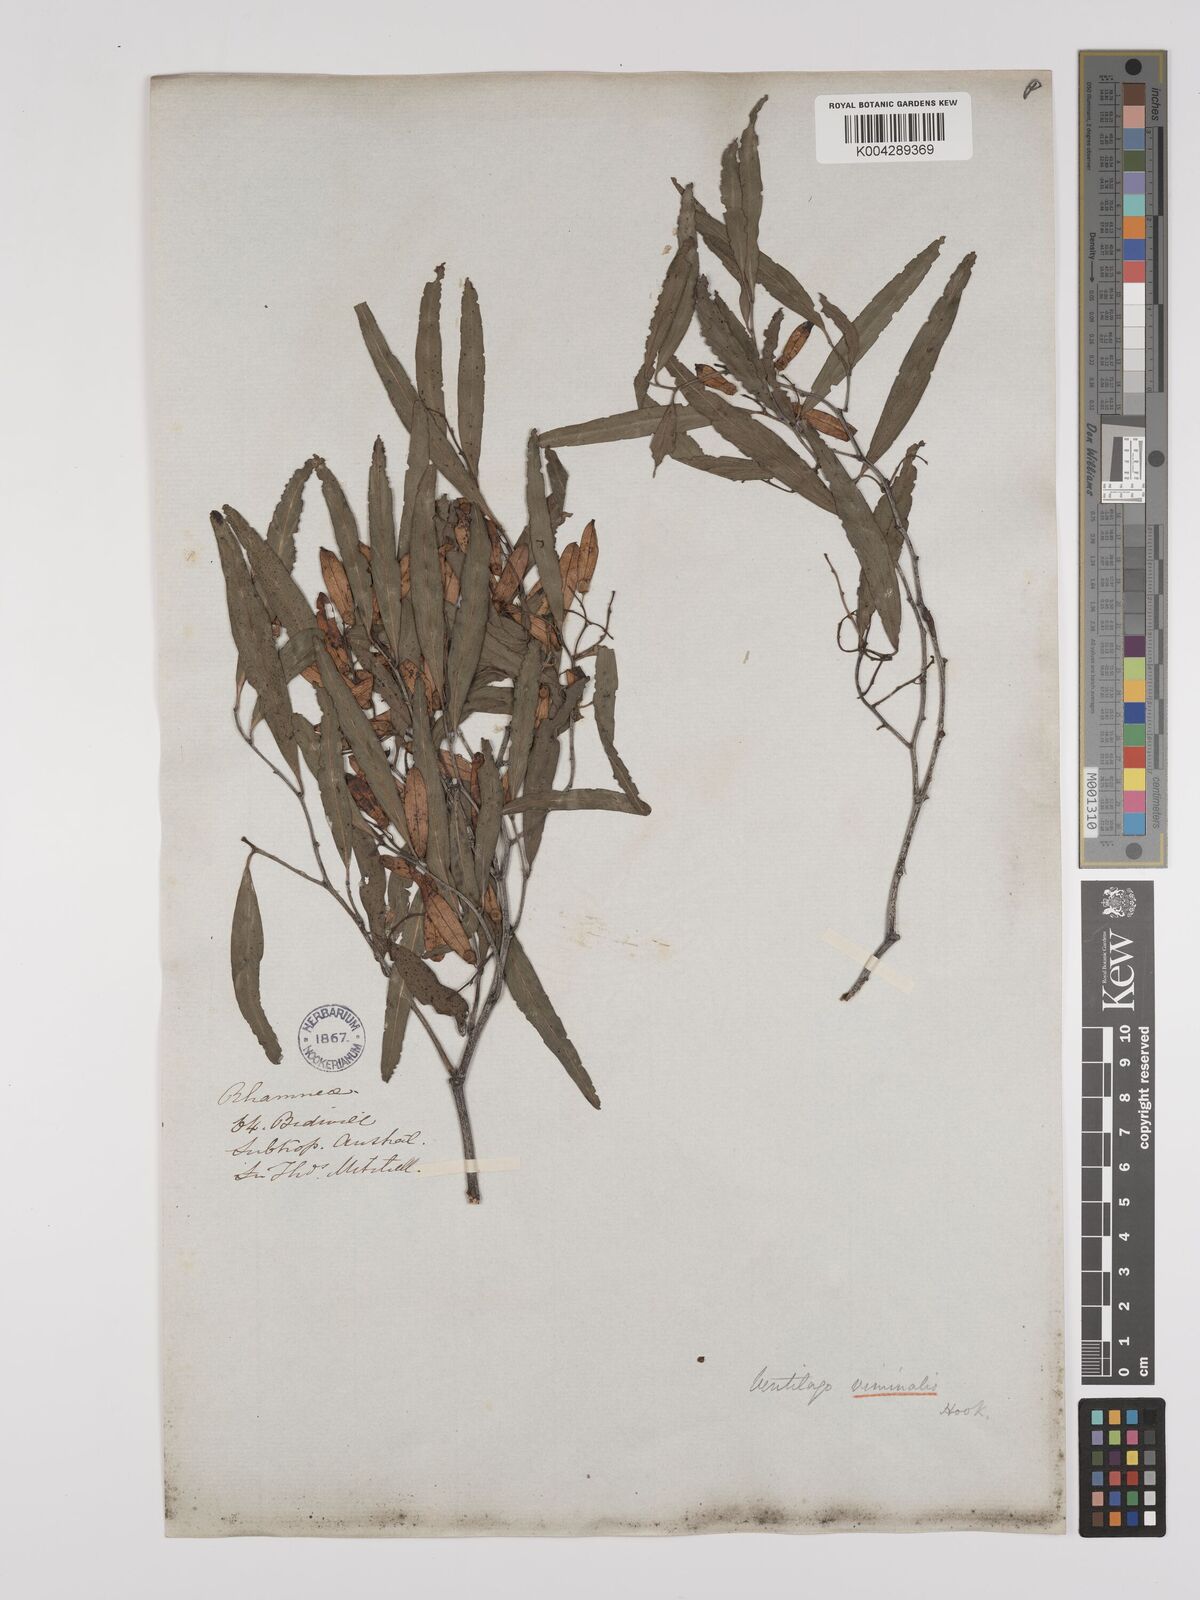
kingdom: Plantae
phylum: Tracheophyta
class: Magnoliopsida
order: Rosales
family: Rhamnaceae
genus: Ventilago
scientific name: Ventilago viminalis
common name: Medicine-bark
